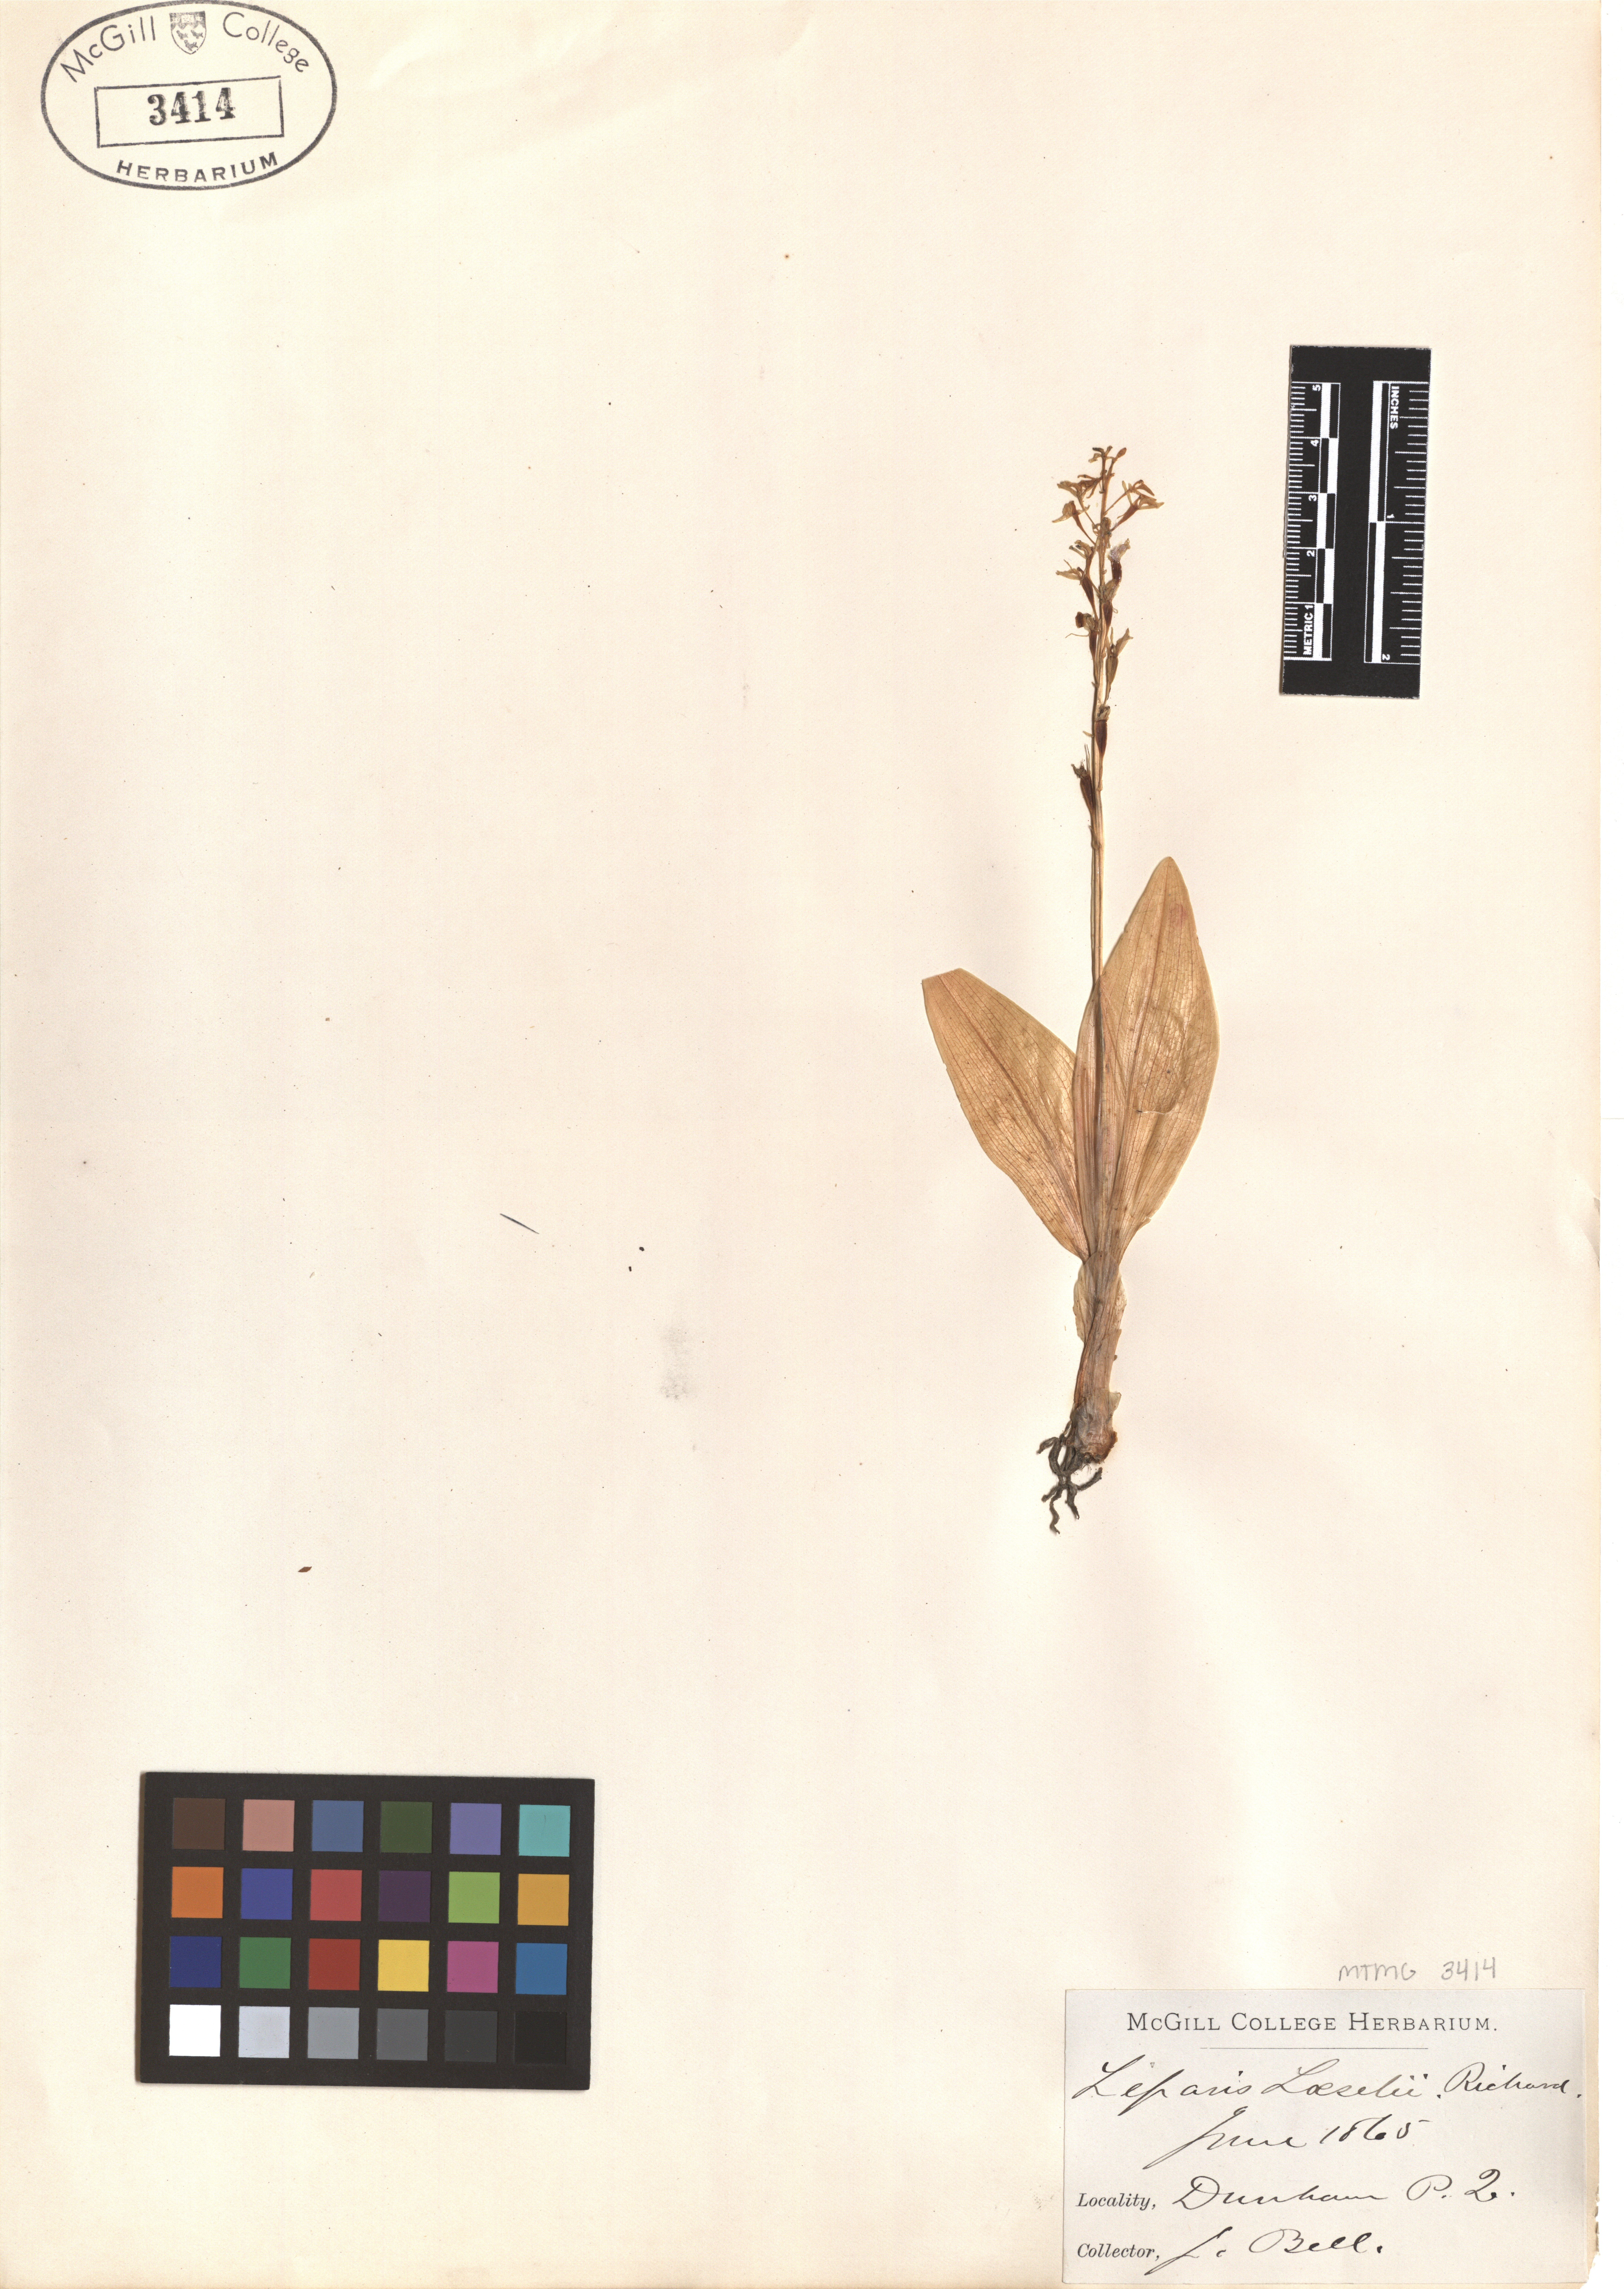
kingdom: Animalia
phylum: Arthropoda
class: Insecta
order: Coleoptera
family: Curculionidae
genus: Liparis
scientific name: Liparis loeselii
